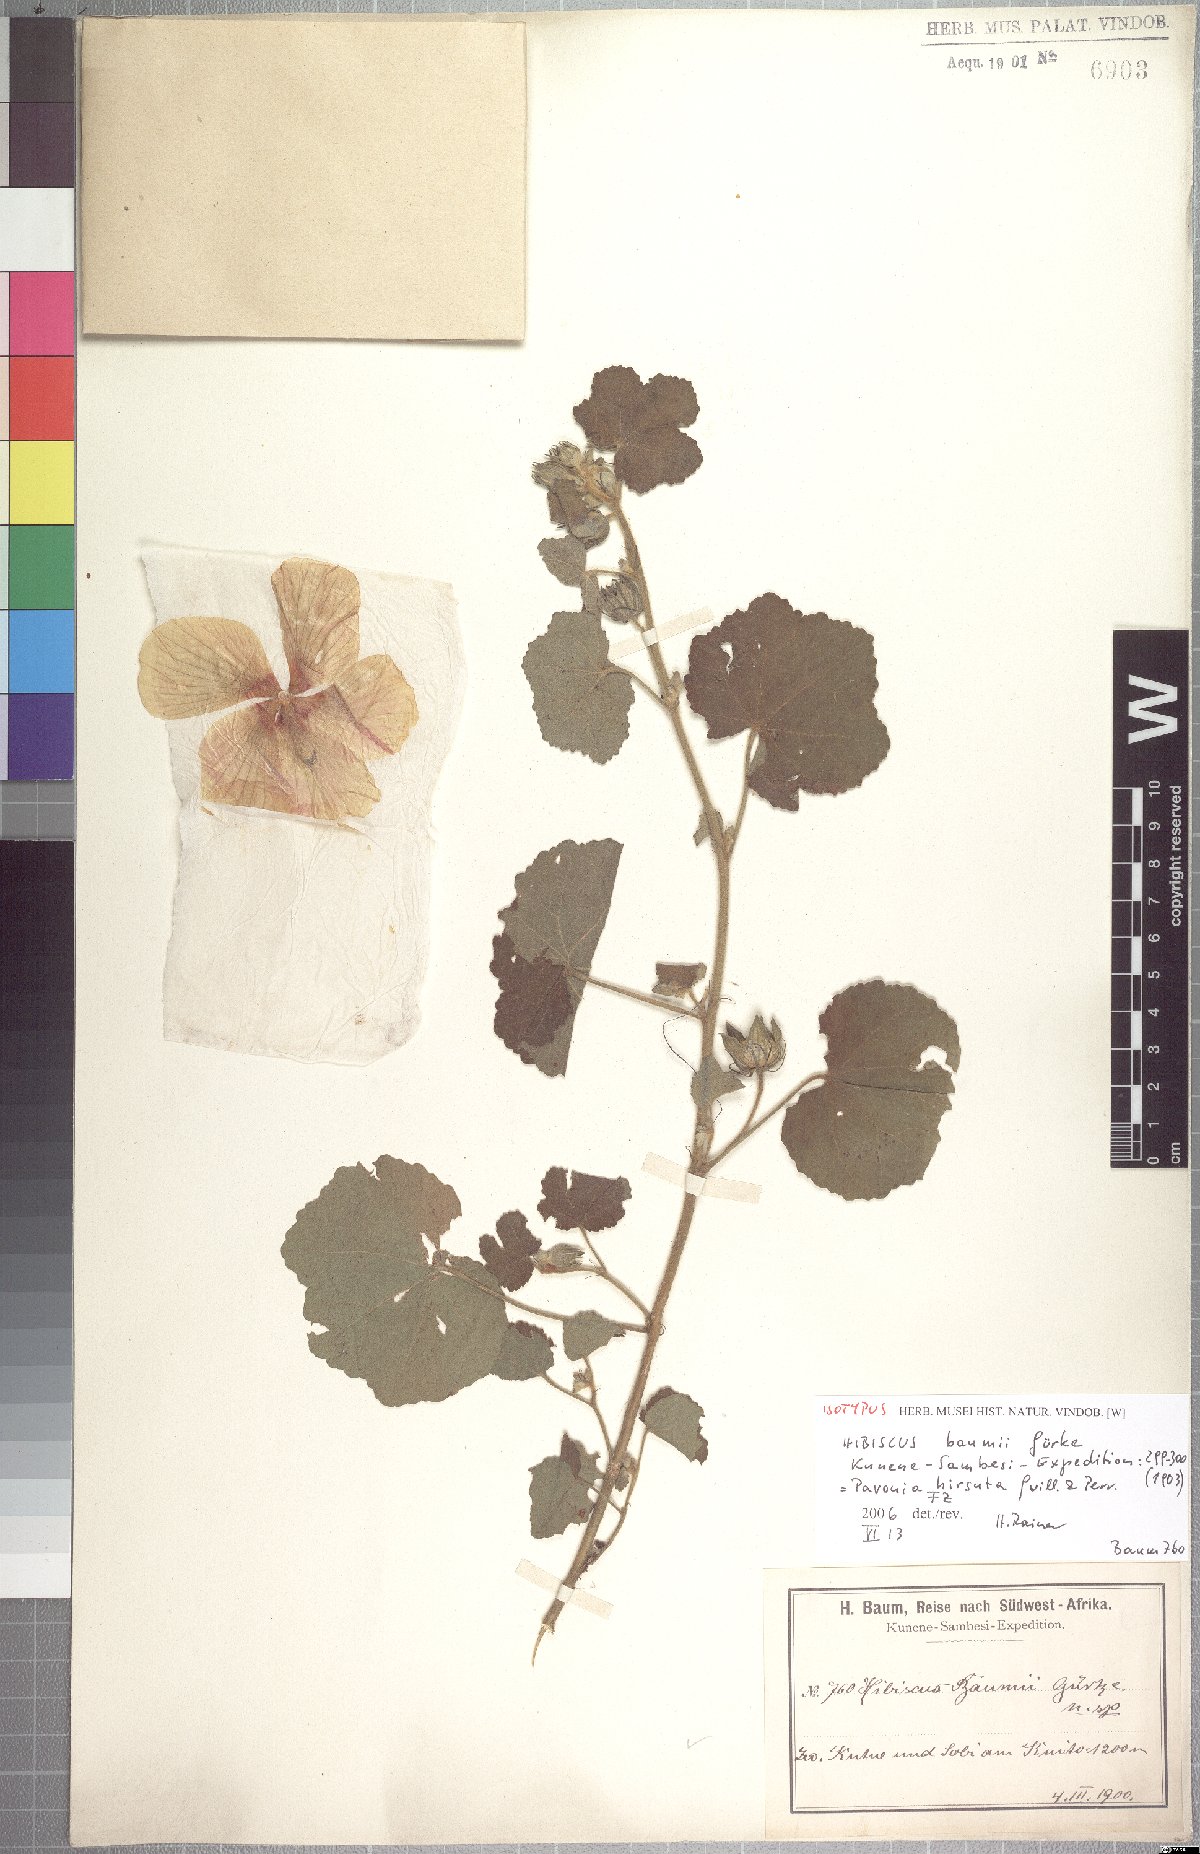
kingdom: Plantae
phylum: Tracheophyta
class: Magnoliopsida
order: Malvales
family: Malvaceae
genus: Pavonia
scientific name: Pavonia senegalensis
